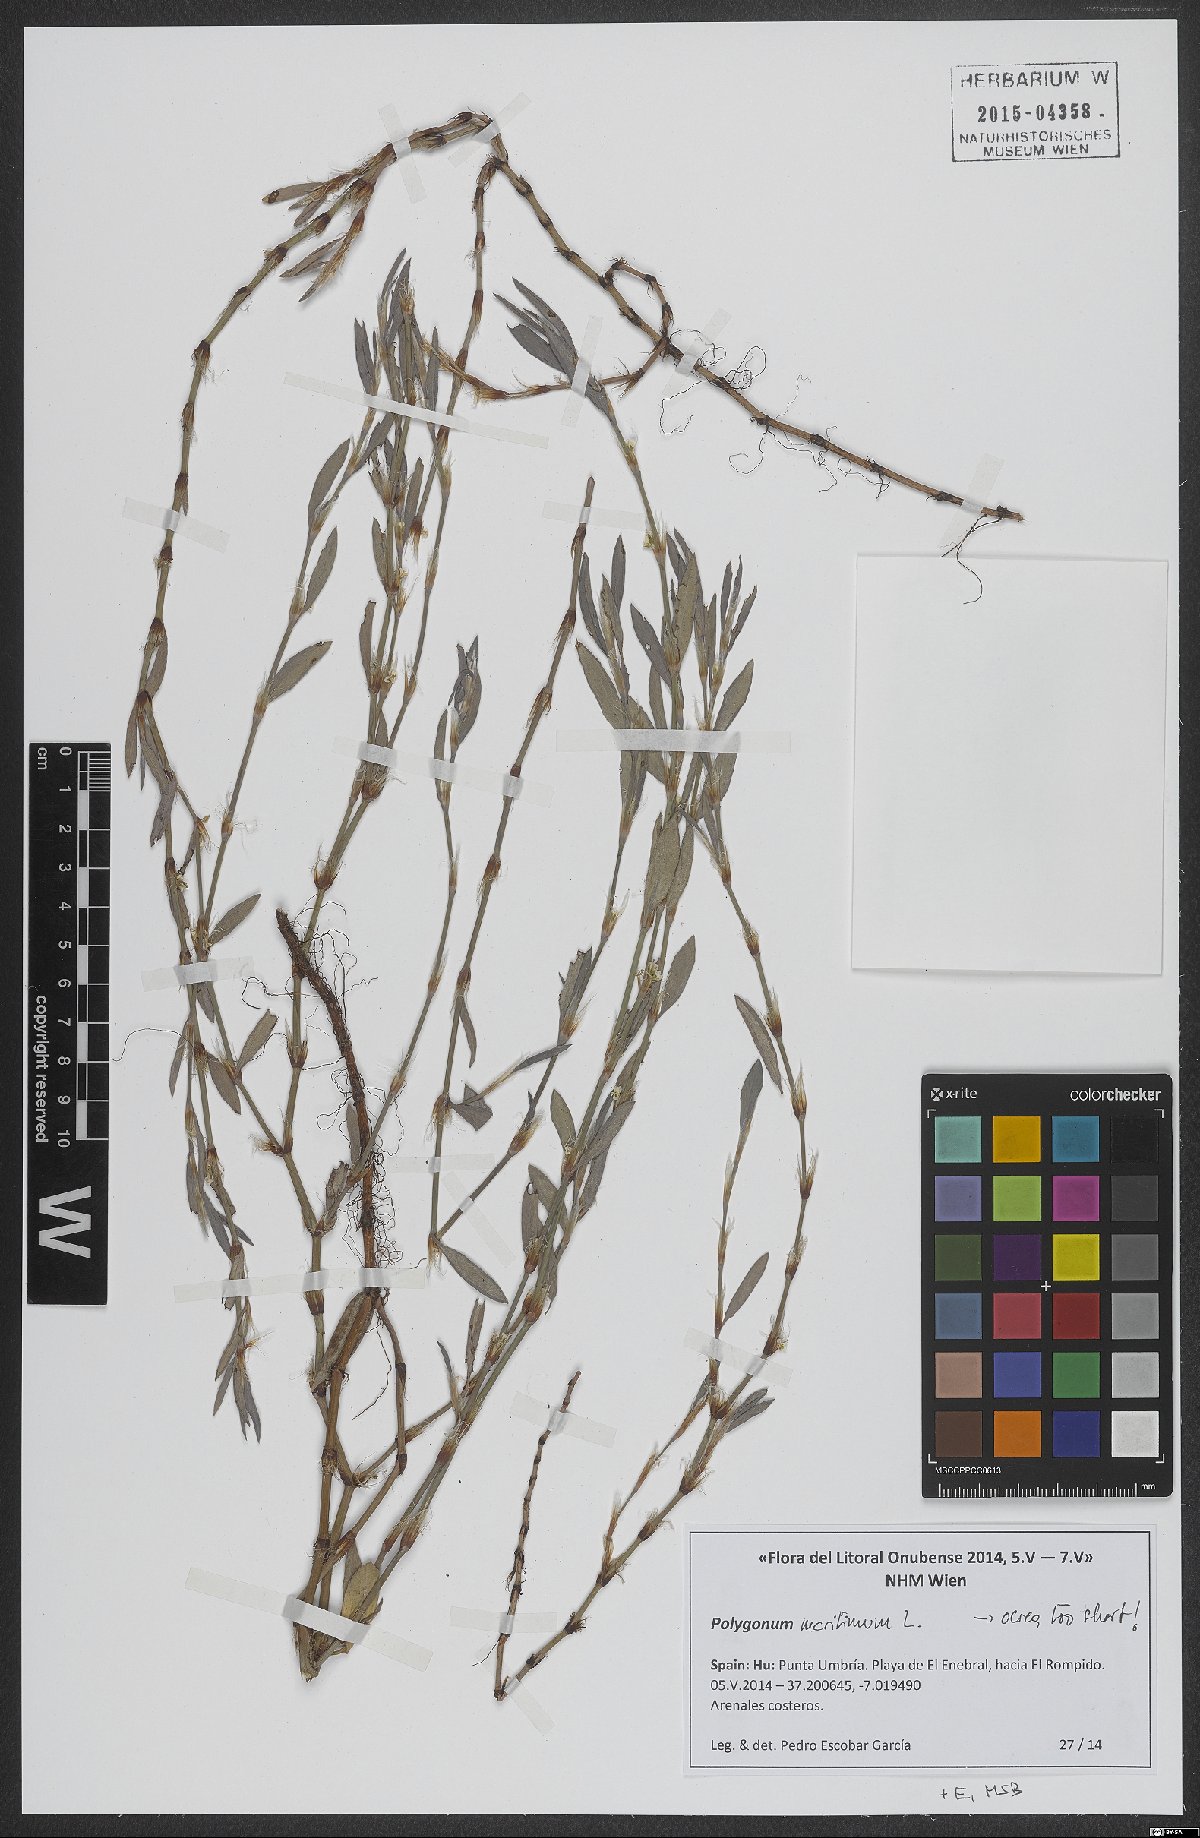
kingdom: Plantae
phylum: Tracheophyta
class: Magnoliopsida
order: Caryophyllales
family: Polygonaceae
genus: Polygonum
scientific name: Polygonum maritimum
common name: Sea knotgrass
